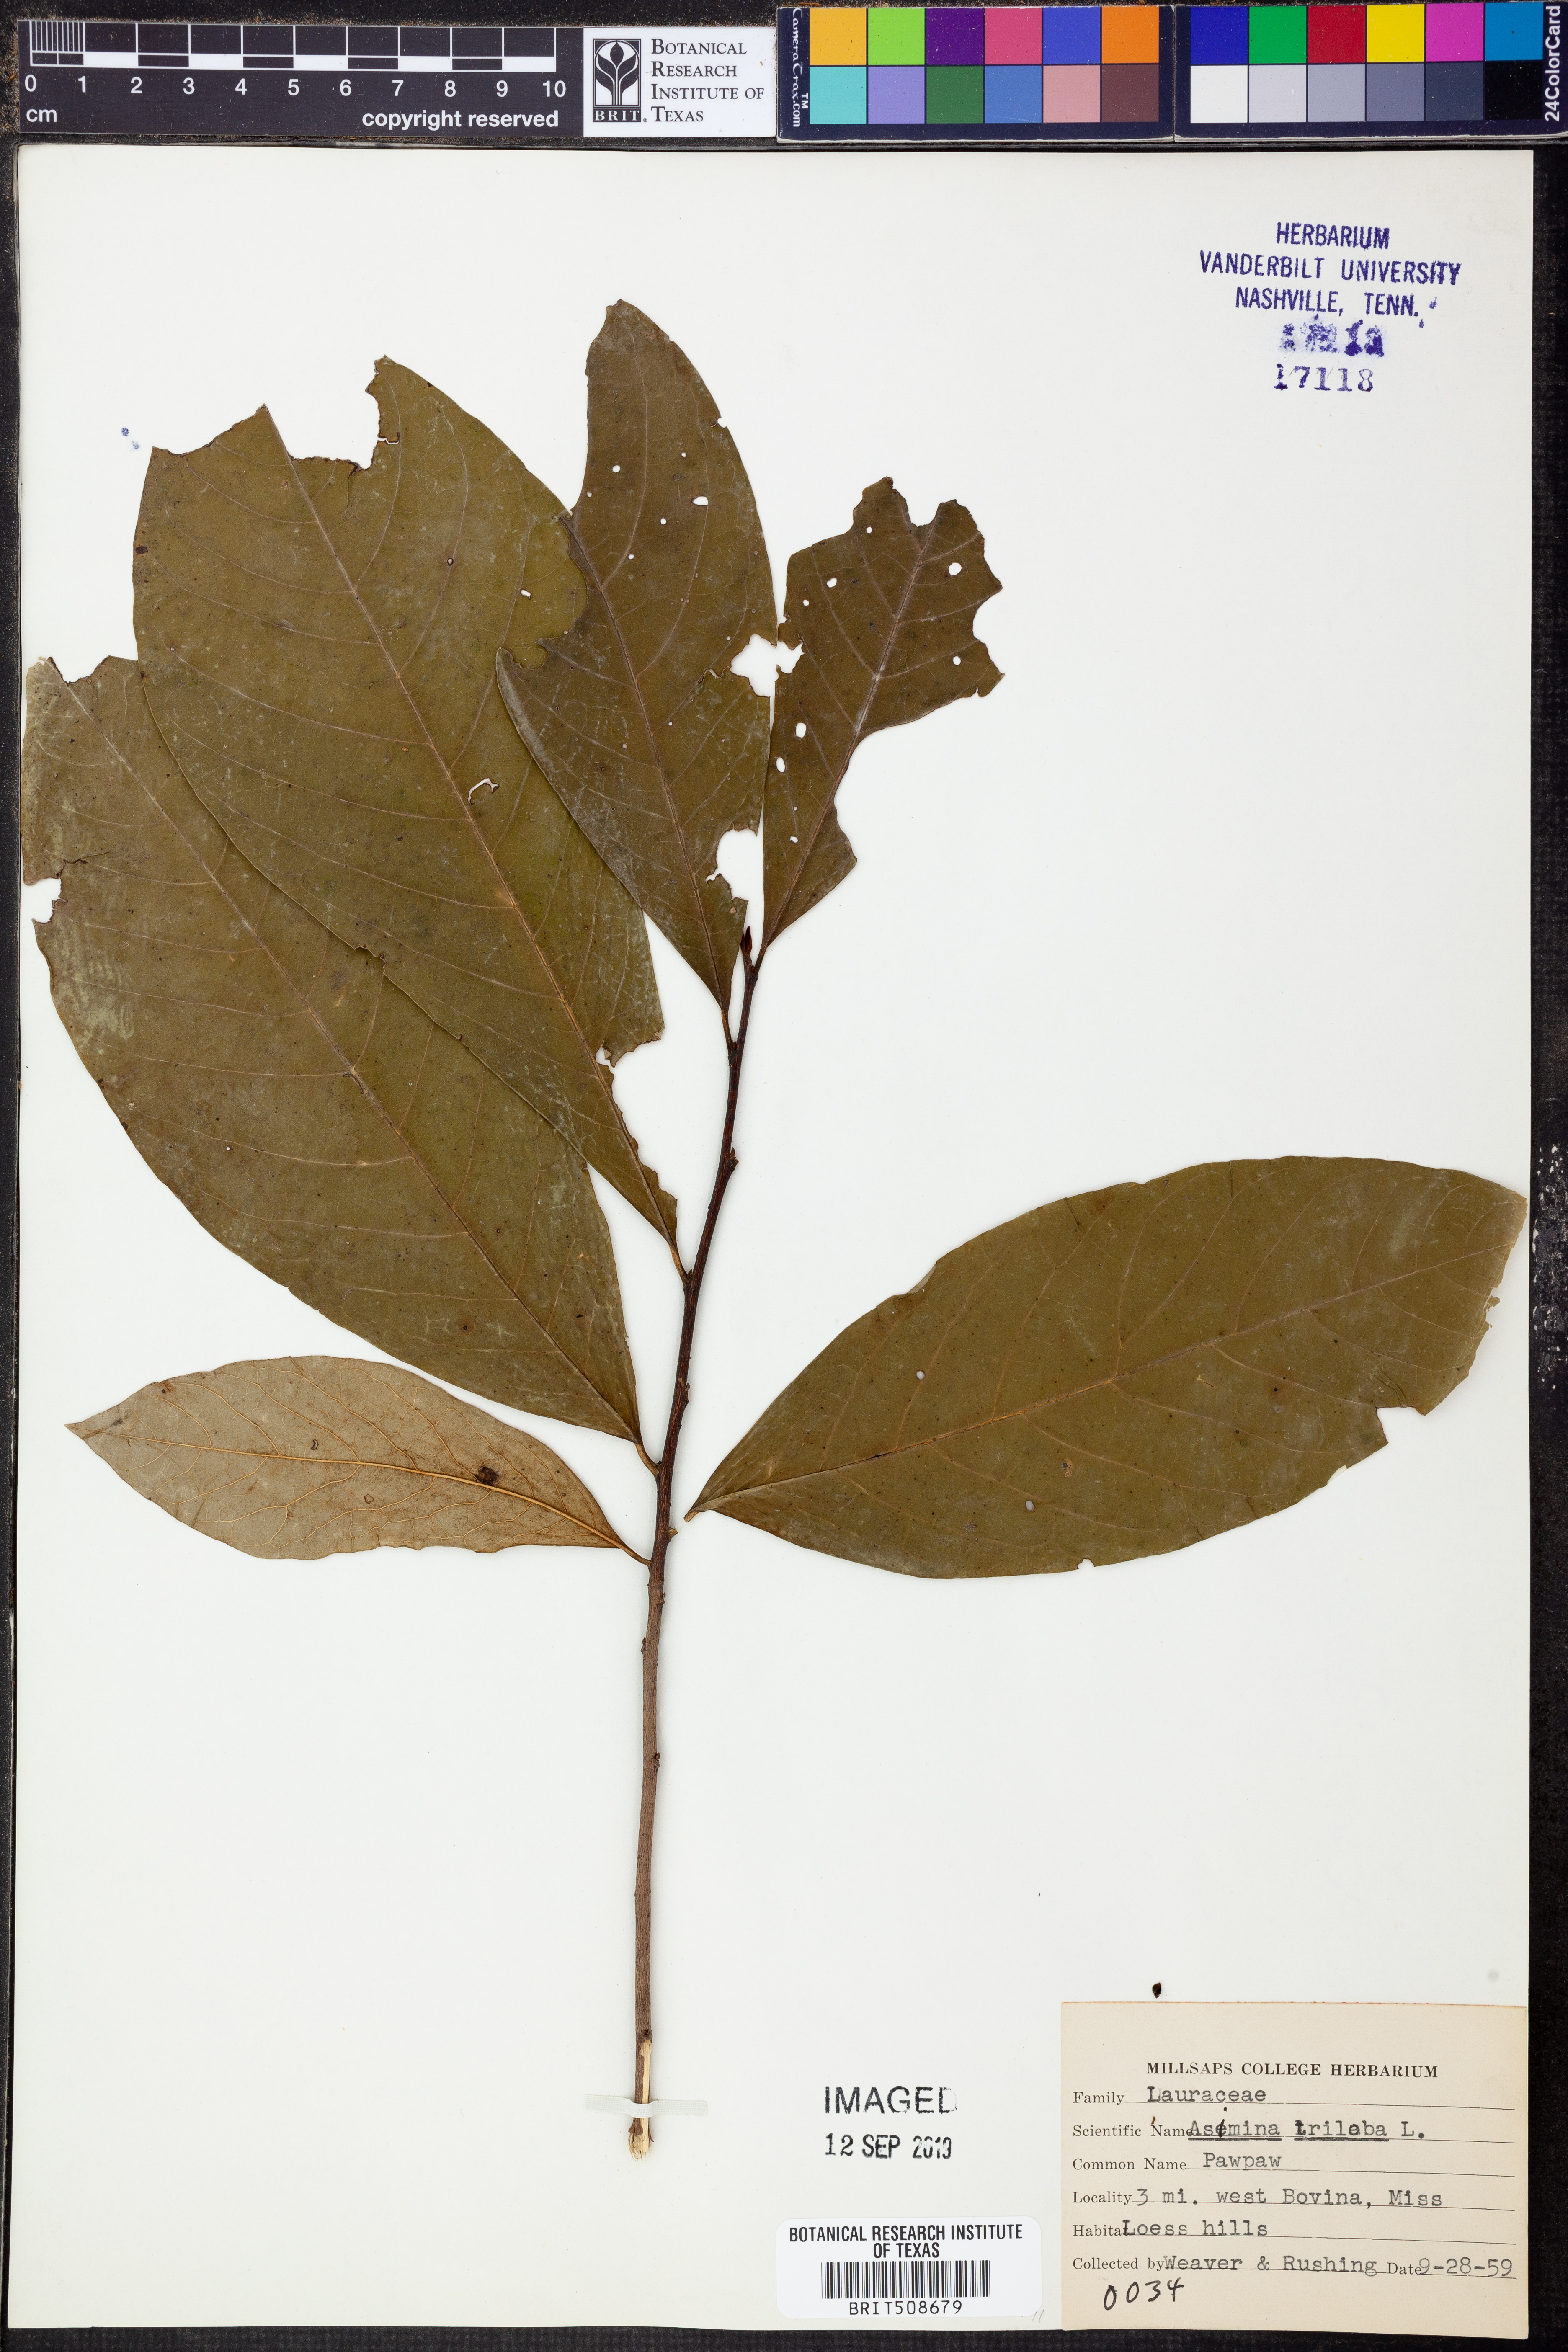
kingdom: Plantae
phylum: Tracheophyta
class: Magnoliopsida
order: Magnoliales
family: Annonaceae
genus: Asimina
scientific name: Asimina triloba
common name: Dog-banana
